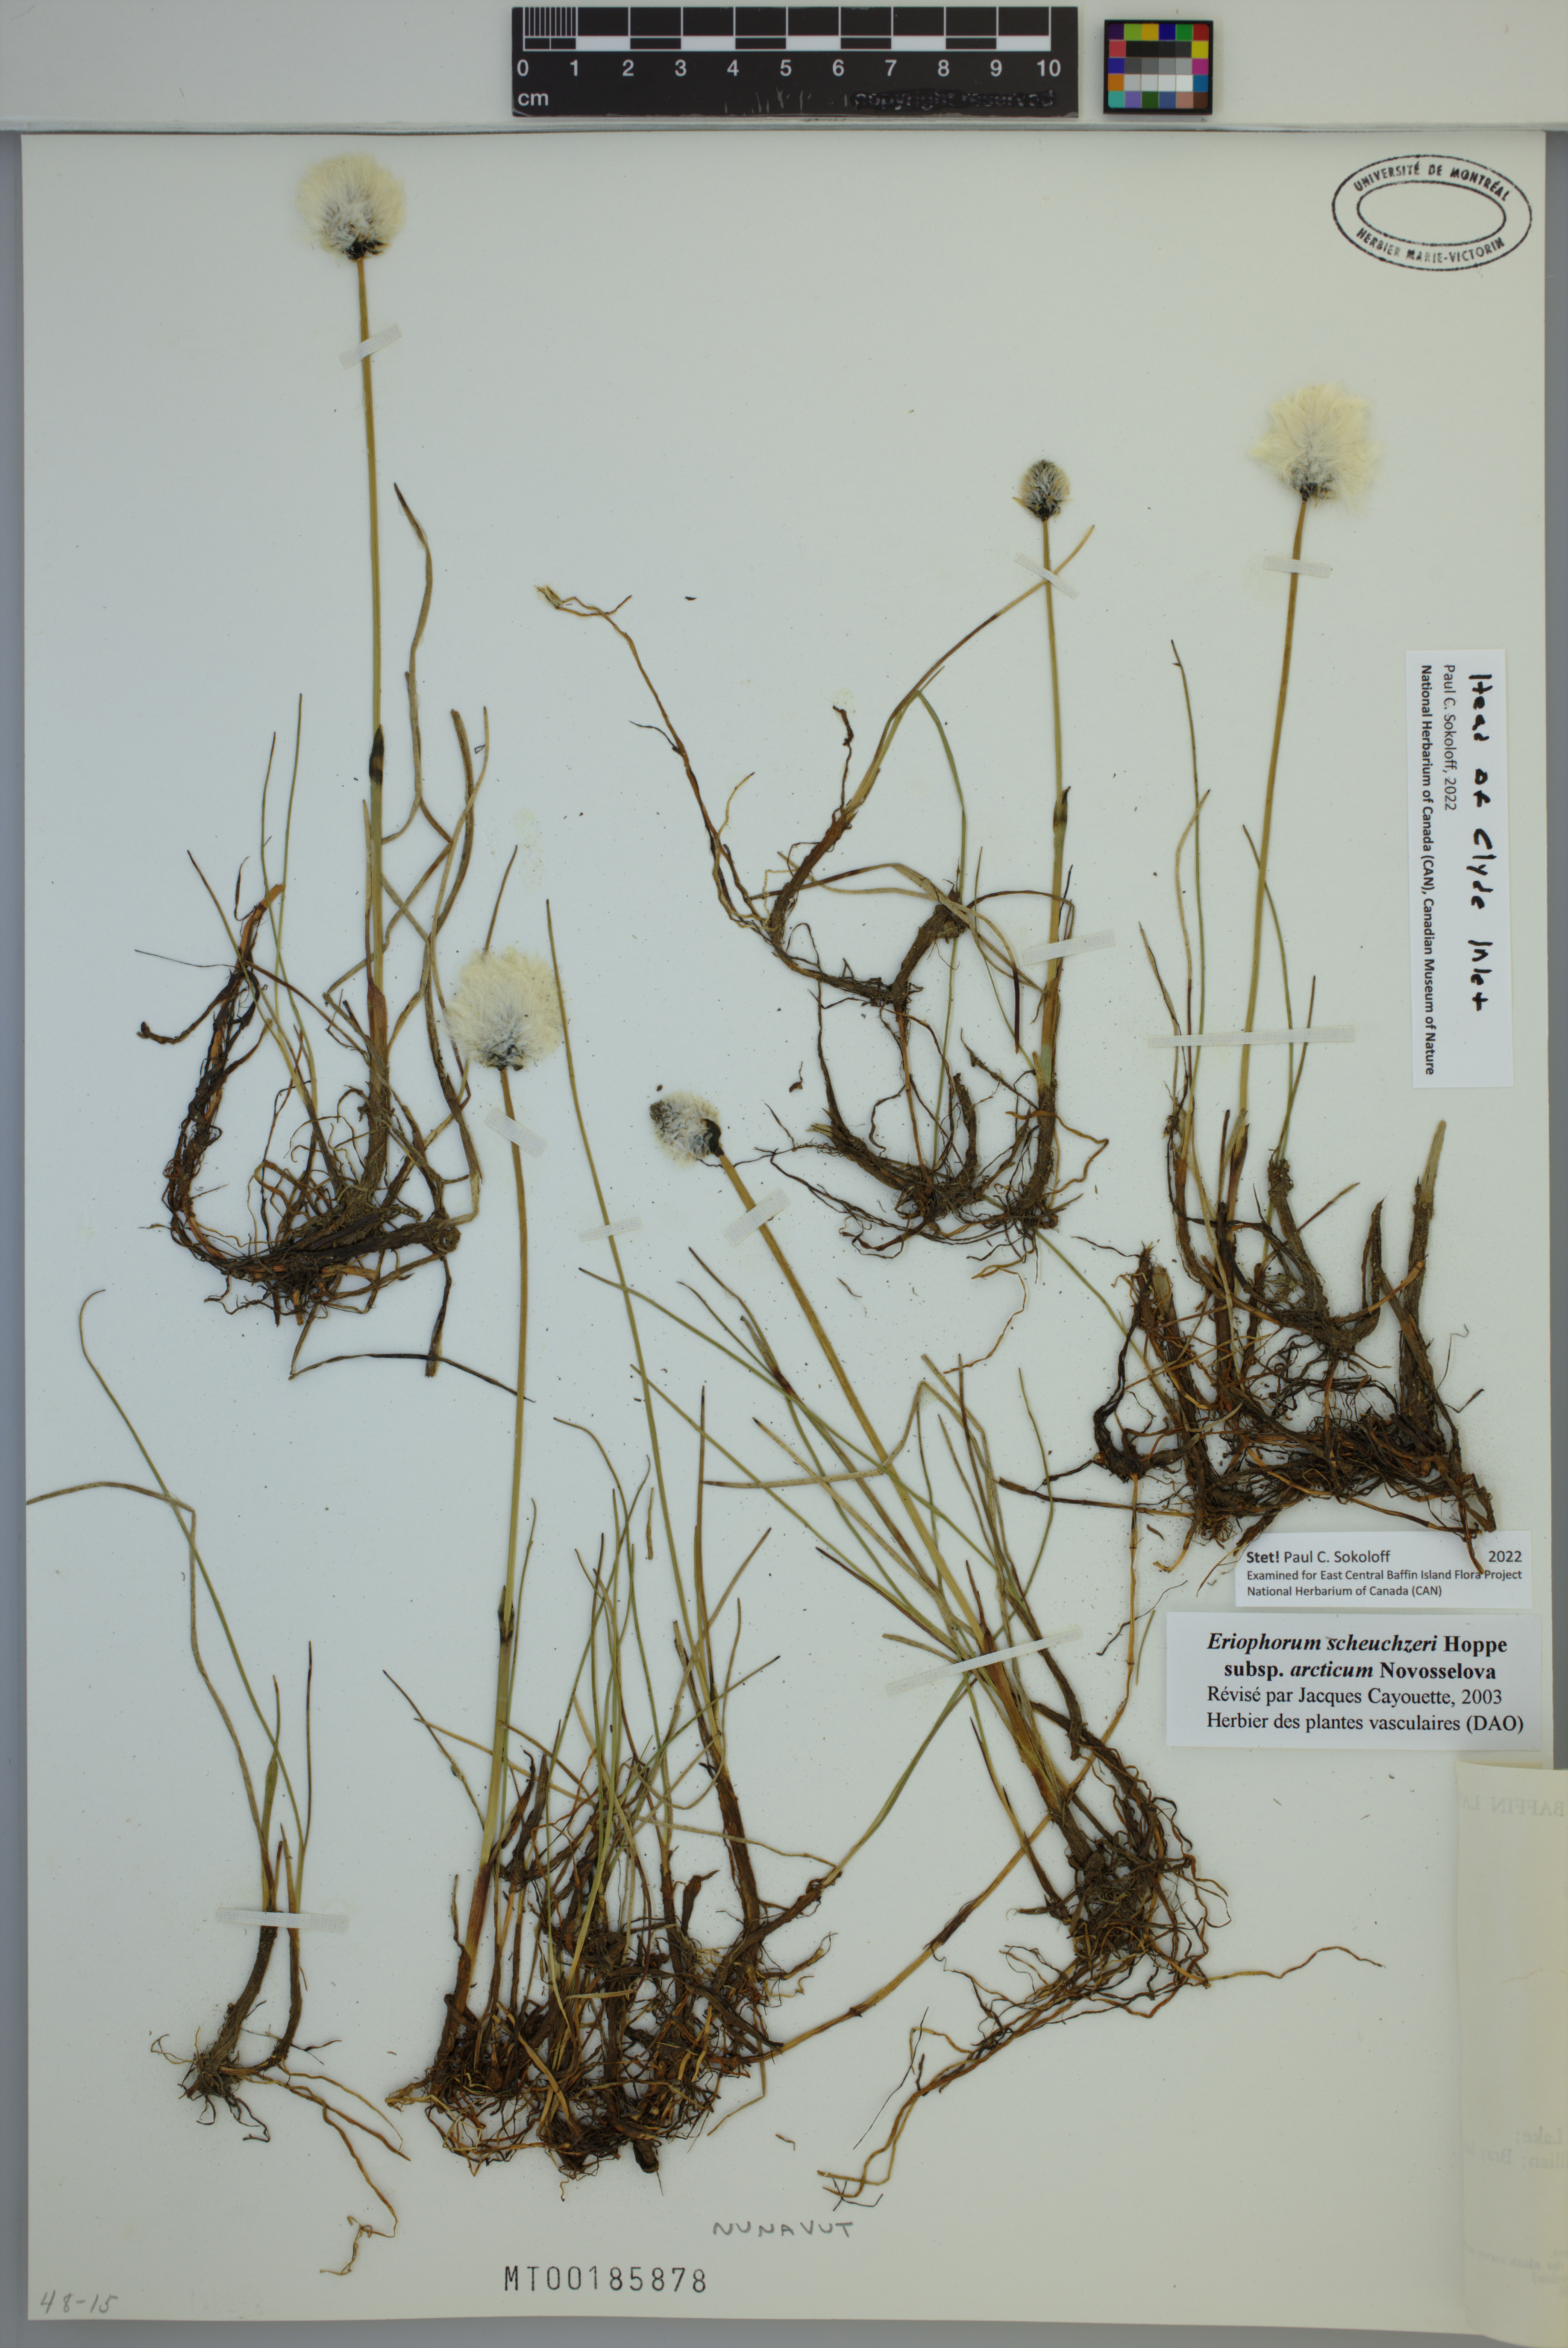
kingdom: Plantae
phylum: Tracheophyta
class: Liliopsida
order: Poales
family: Cyperaceae
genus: Eriophorum
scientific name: Eriophorum scheuchzeri
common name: Scheuchzer's cottongrass
